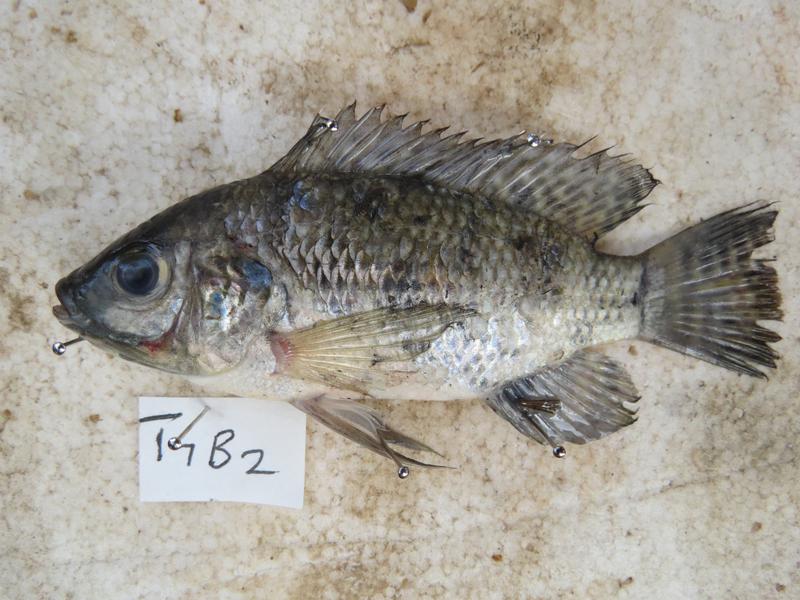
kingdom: Animalia
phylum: Chordata
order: Perciformes
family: Cichlidae
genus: Oreochromis
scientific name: Oreochromis leucostictus
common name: Blue spotted tilapia
